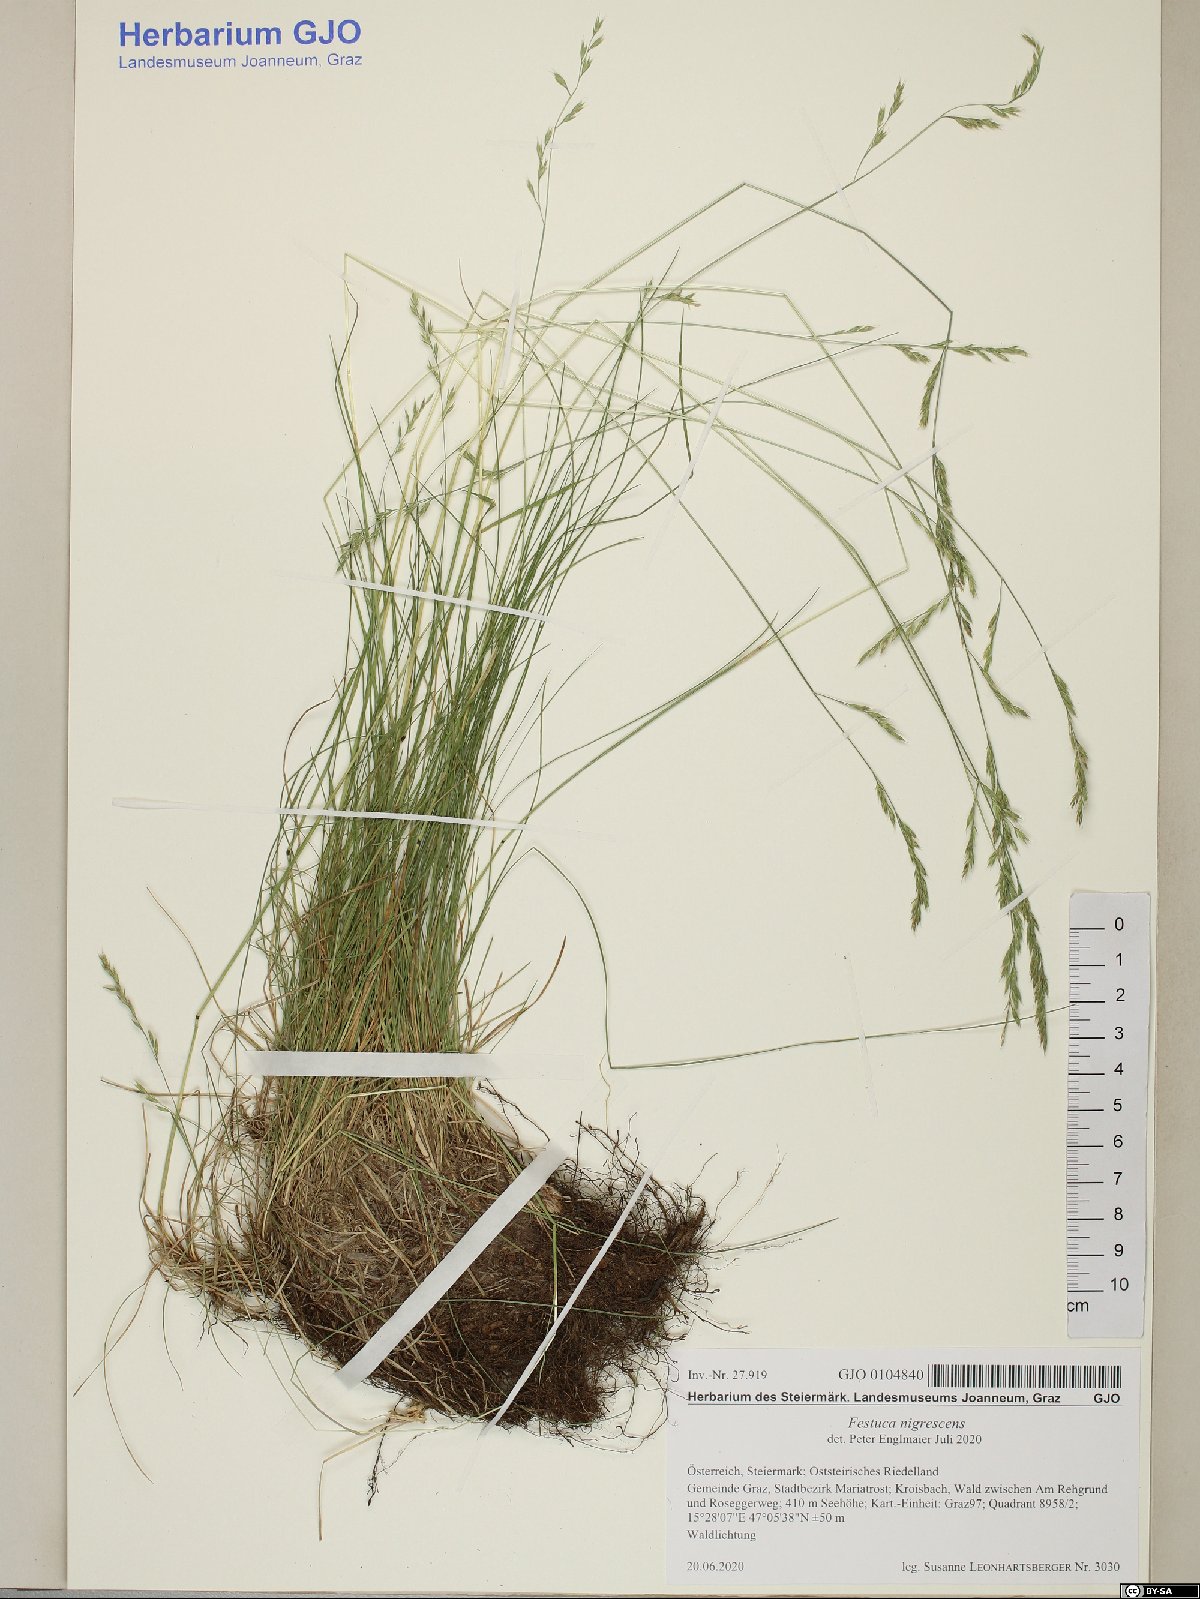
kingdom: Plantae
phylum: Tracheophyta
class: Liliopsida
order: Poales
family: Poaceae
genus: Festuca
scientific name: Festuca nigrescens
